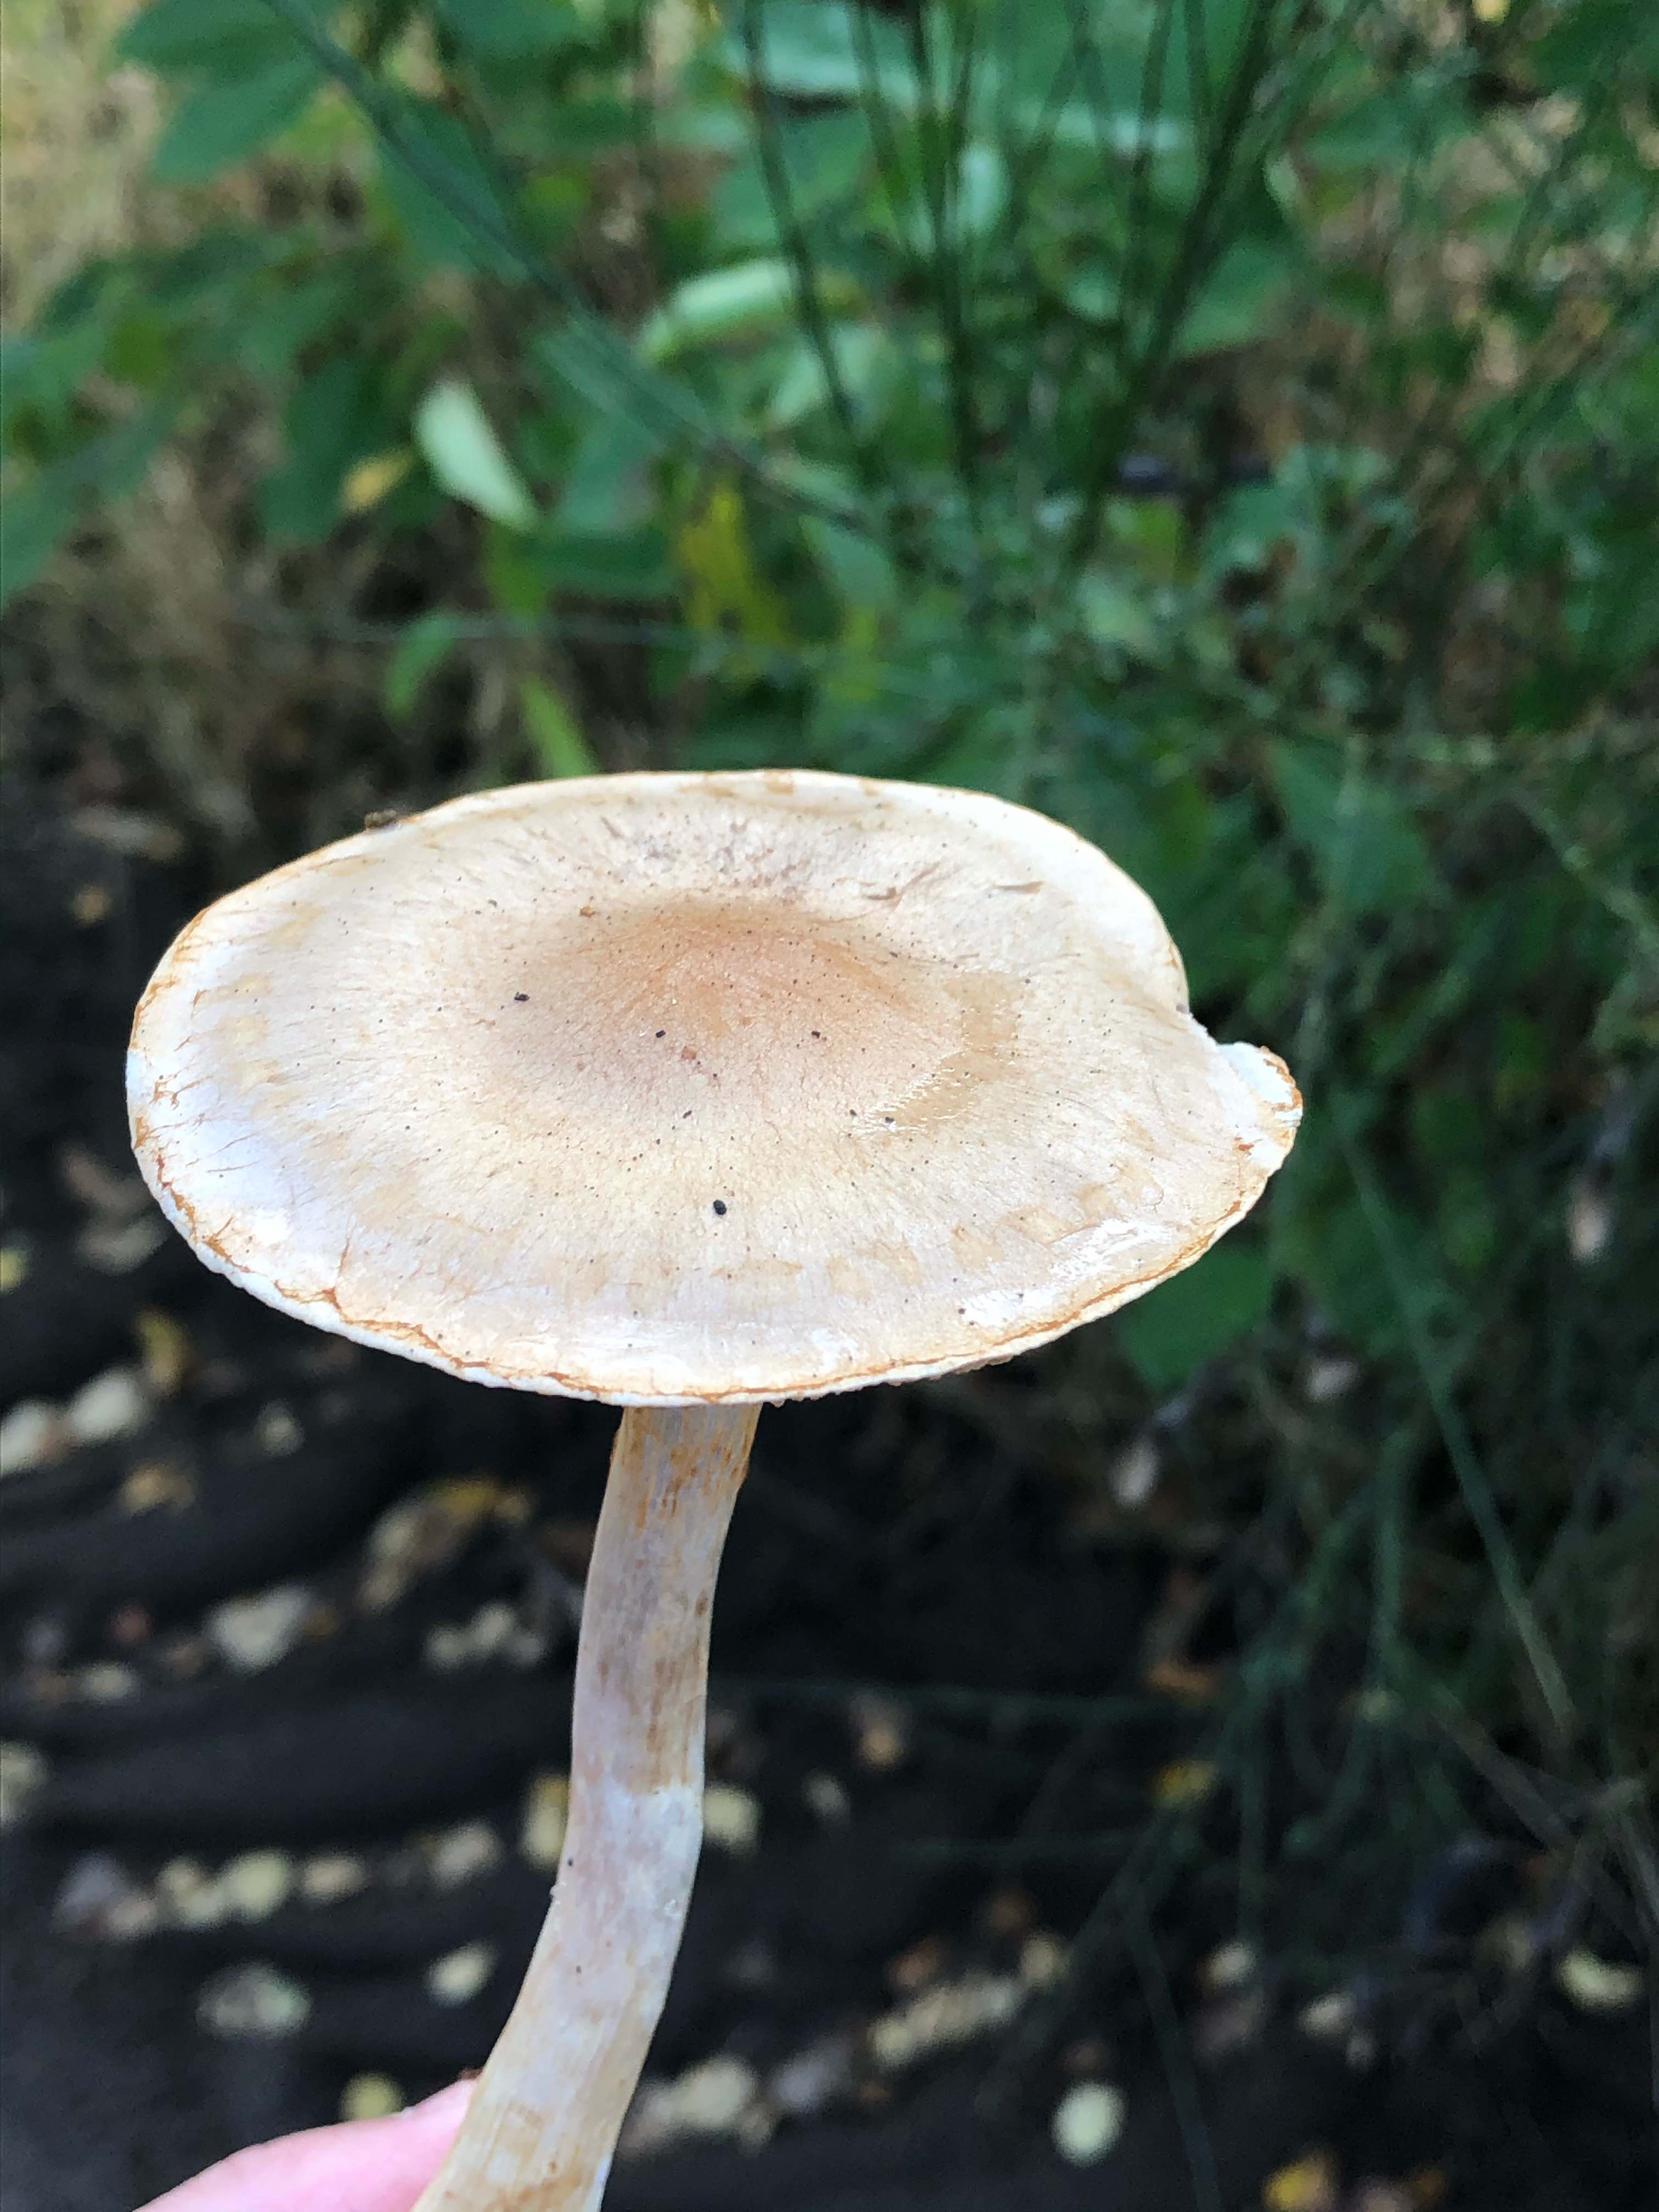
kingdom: Fungi
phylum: Basidiomycota
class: Agaricomycetes
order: Agaricales
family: Cortinariaceae
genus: Cortinarius
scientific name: Cortinarius
